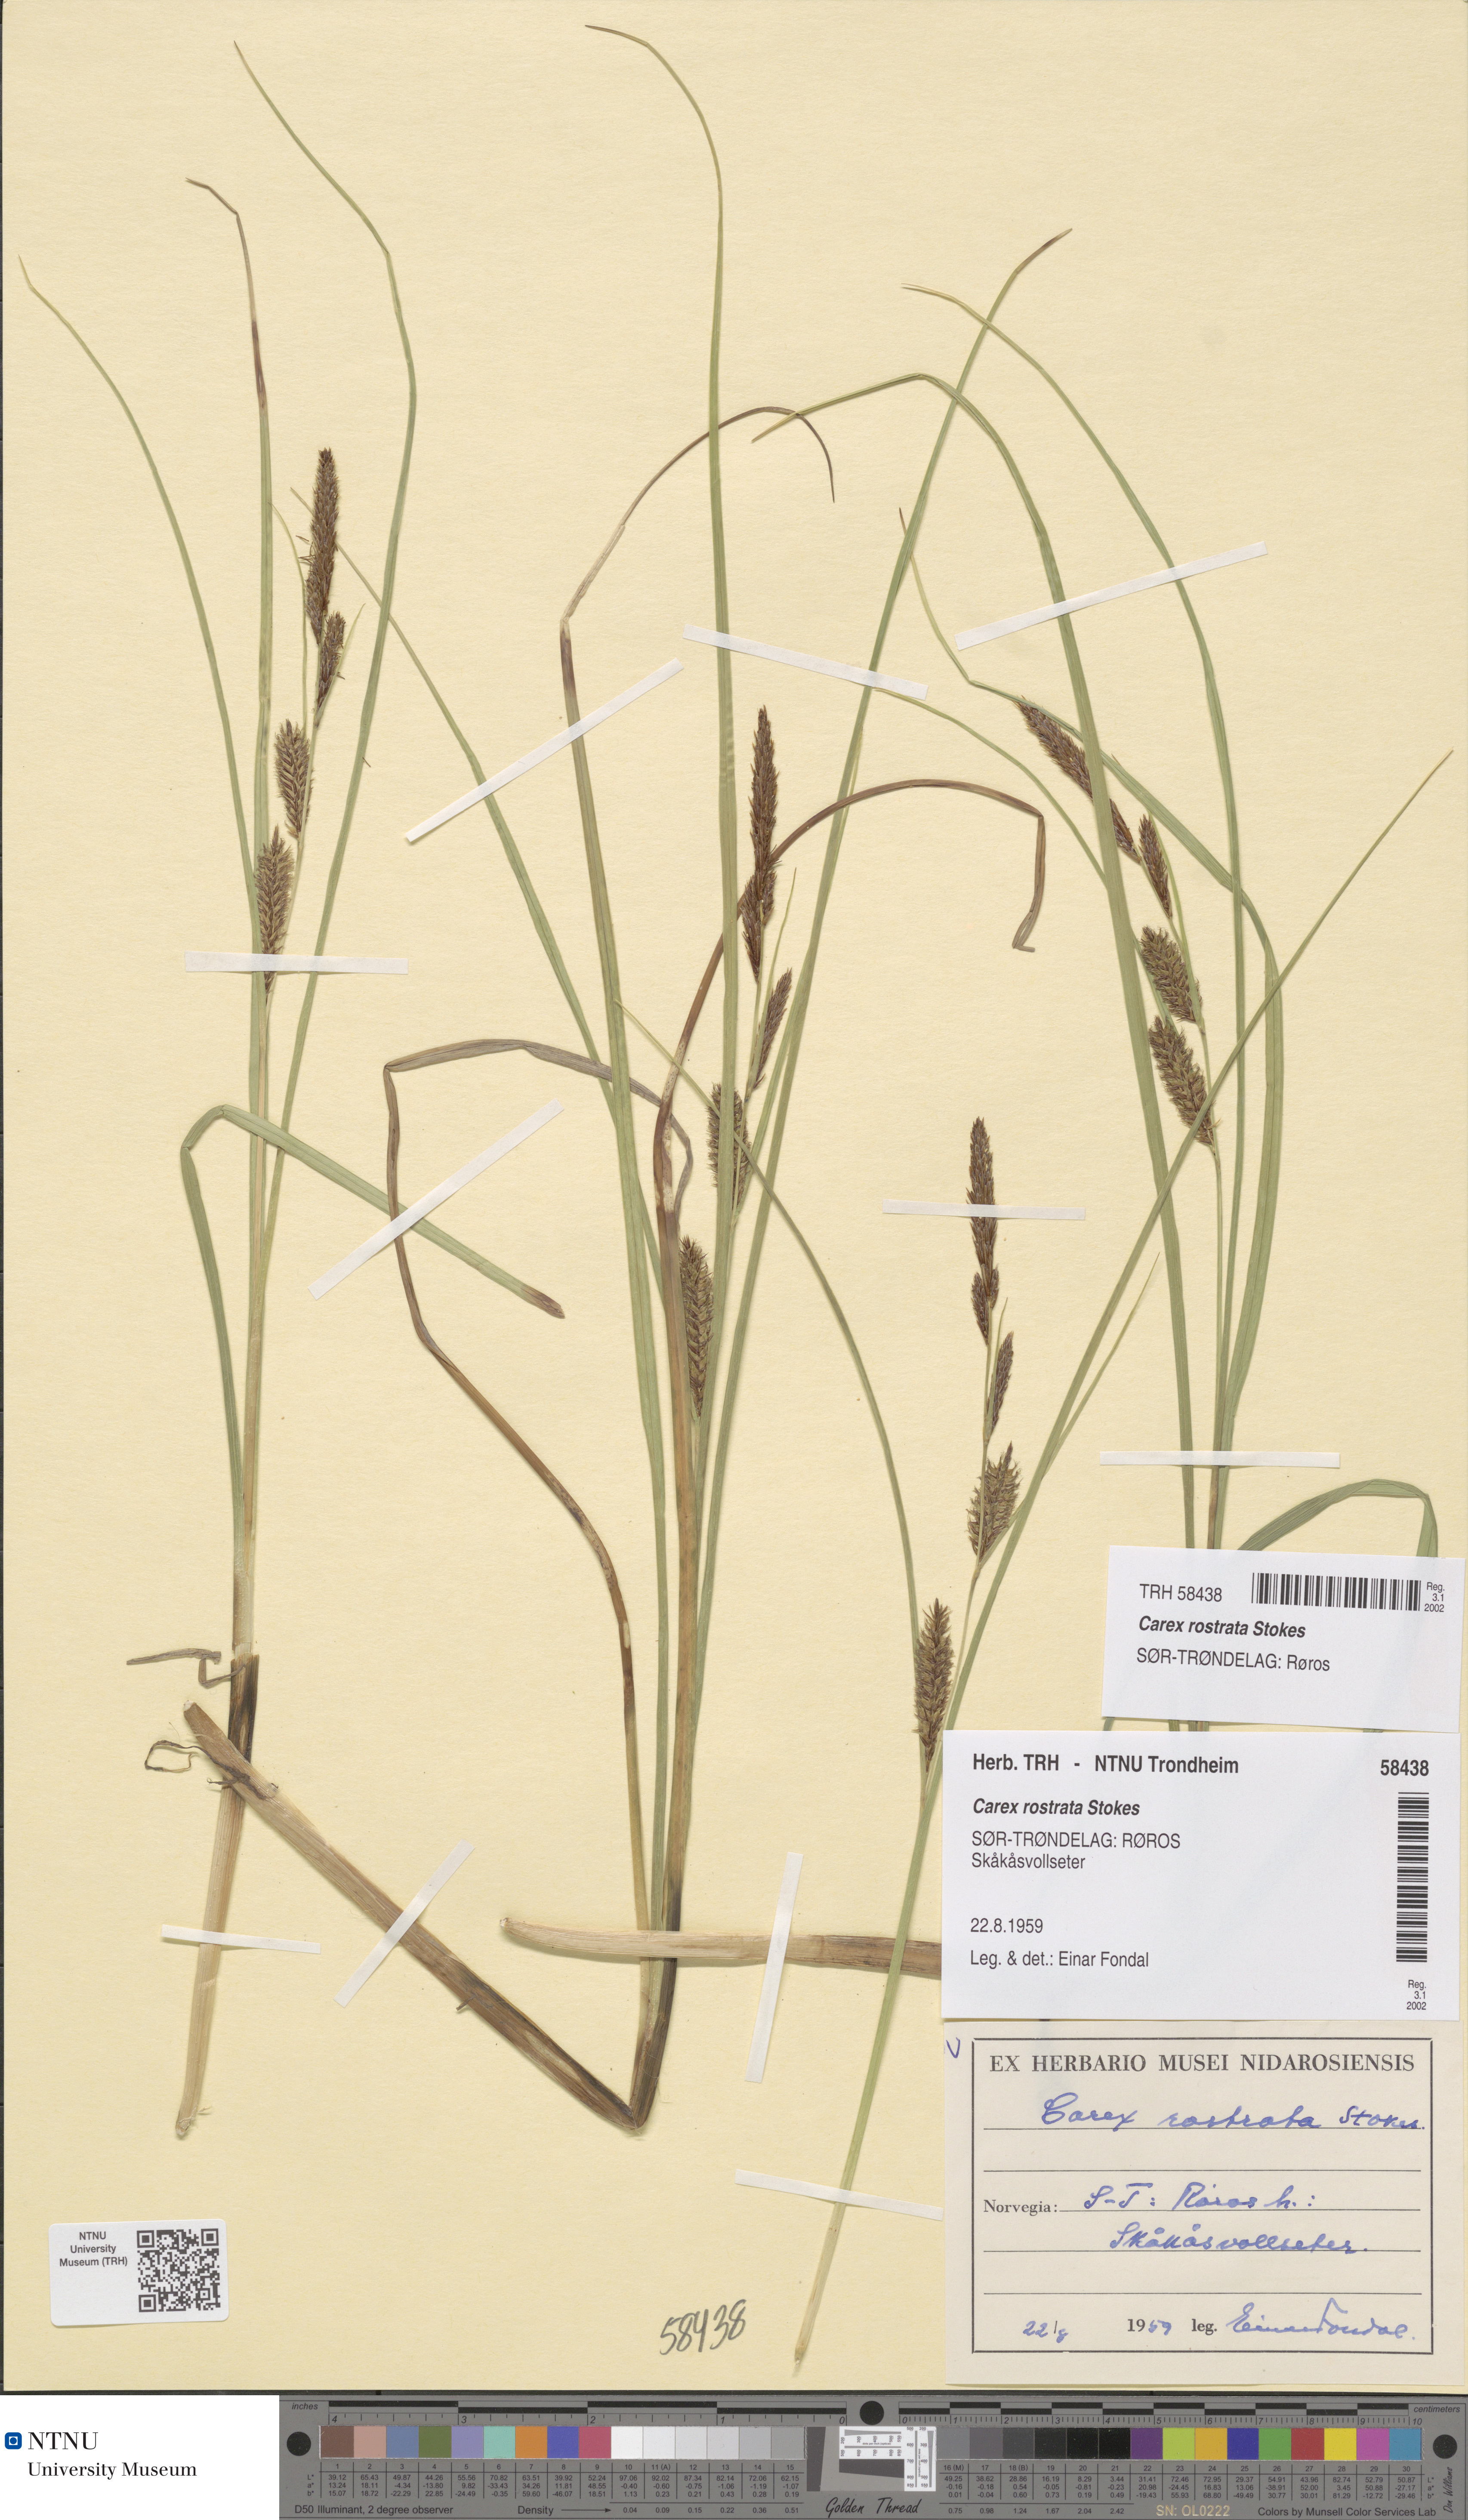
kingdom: Plantae
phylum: Tracheophyta
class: Liliopsida
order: Poales
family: Cyperaceae
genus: Carex
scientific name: Carex rostrata
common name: Bottle sedge
